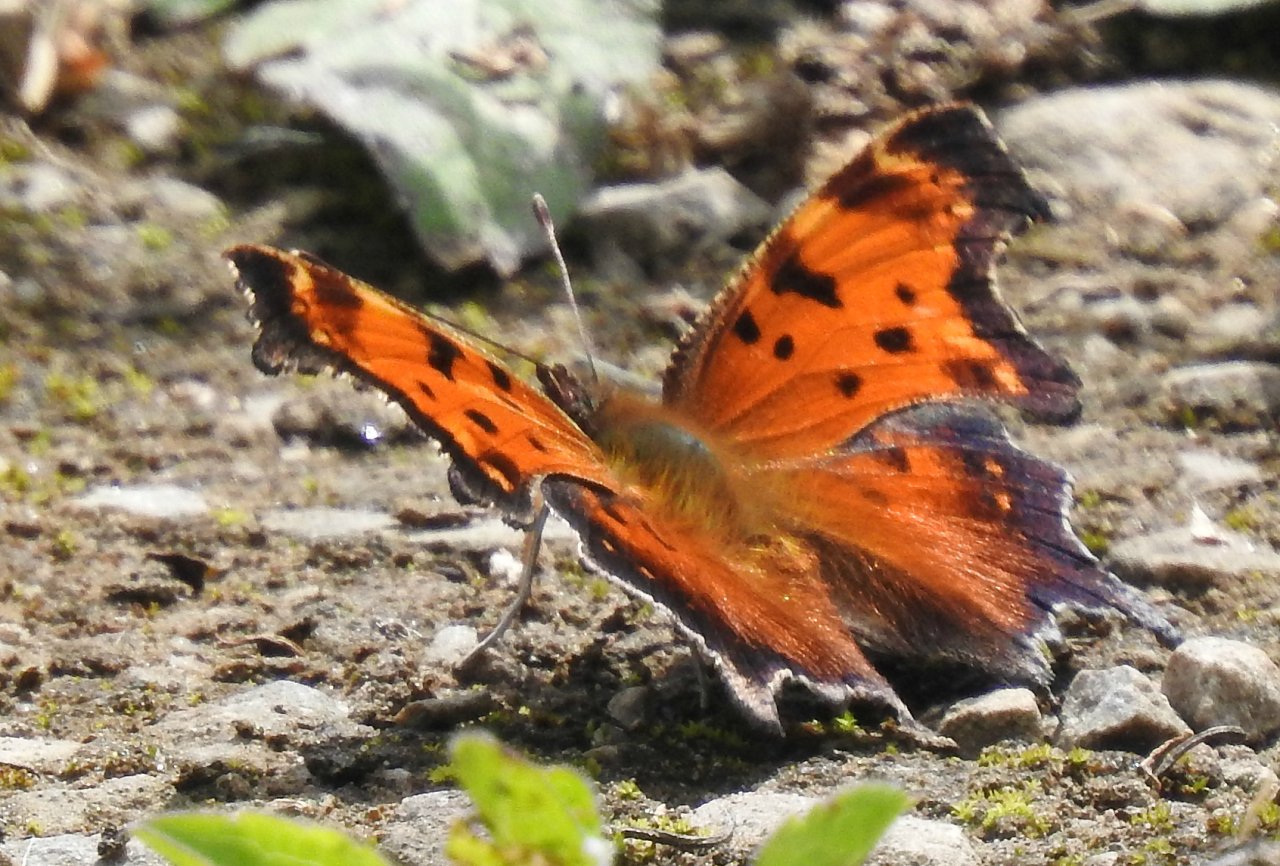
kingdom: Animalia
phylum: Arthropoda
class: Insecta
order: Lepidoptera
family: Nymphalidae
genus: Polygonia
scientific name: Polygonia progne
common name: Gray Comma
